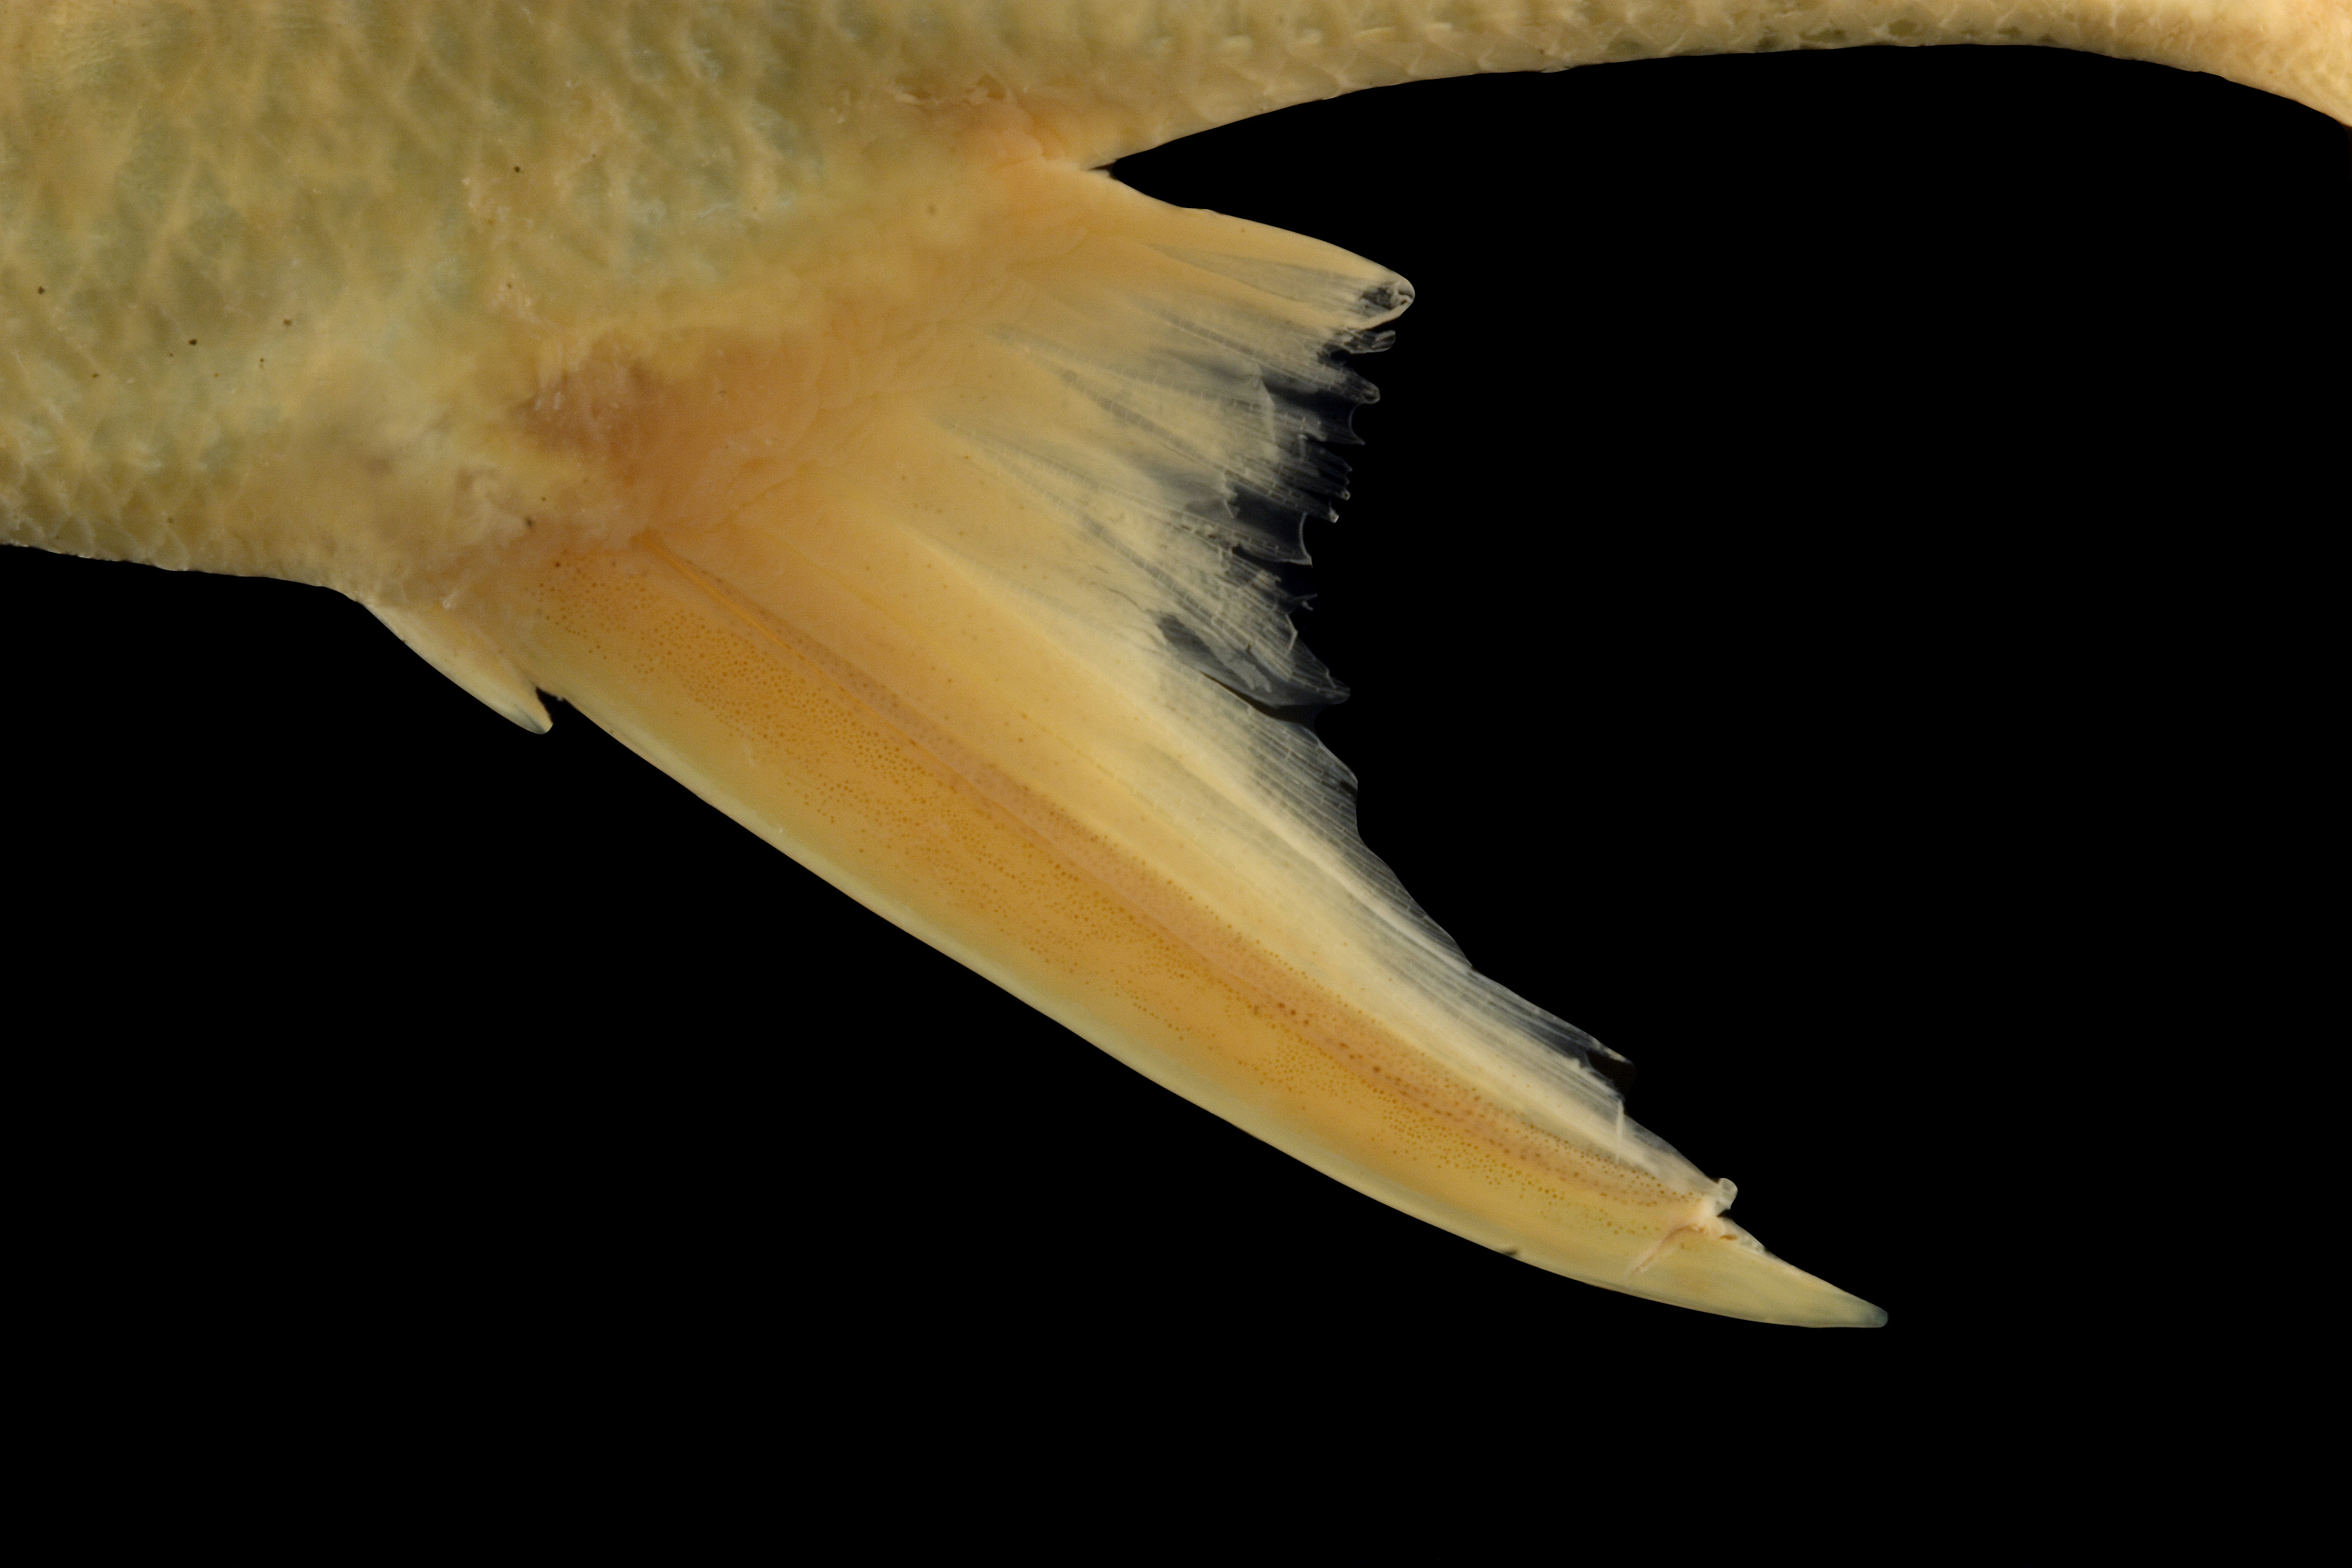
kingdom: Animalia
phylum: Chordata
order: Perciformes
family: Centropomidae
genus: Centropomus
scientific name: Centropomus undecimalis
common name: Snook
